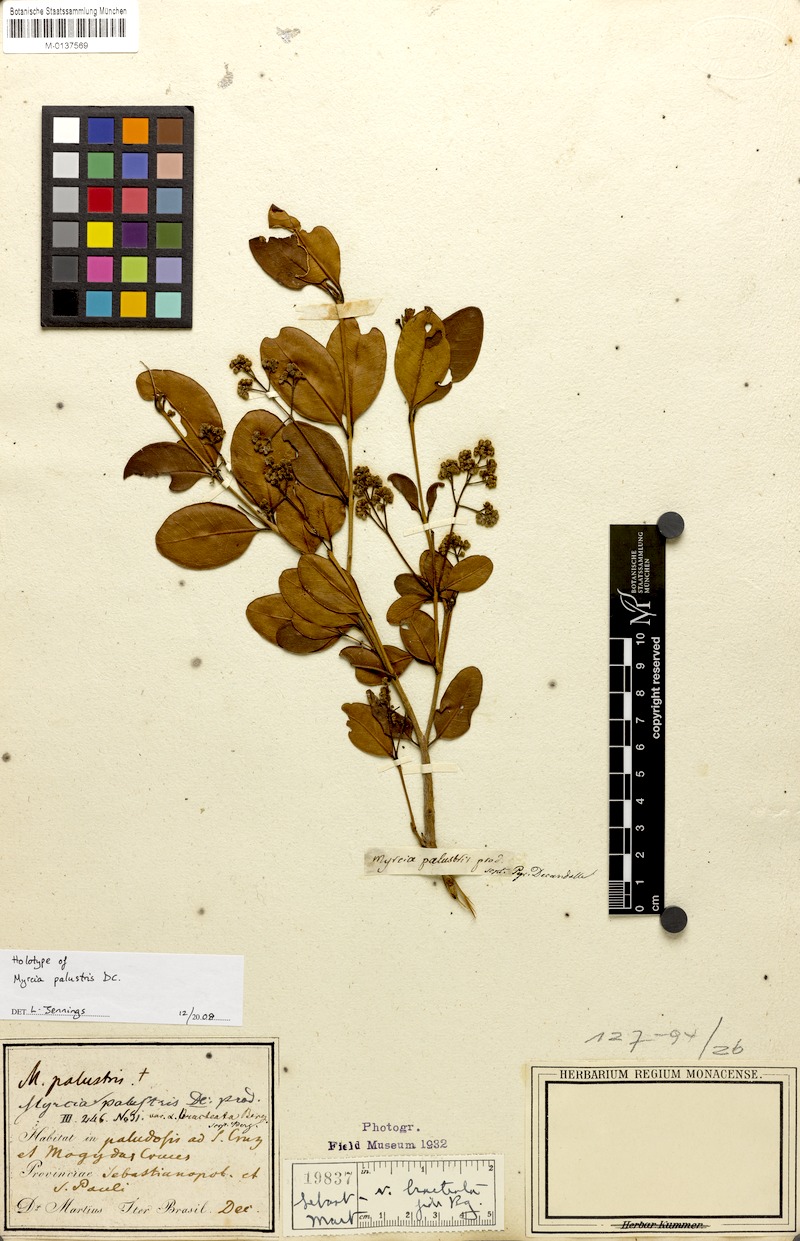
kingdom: Plantae
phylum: Tracheophyta
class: Magnoliopsida
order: Myrtales
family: Myrtaceae
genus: Myrcia
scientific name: Myrcia palustris
